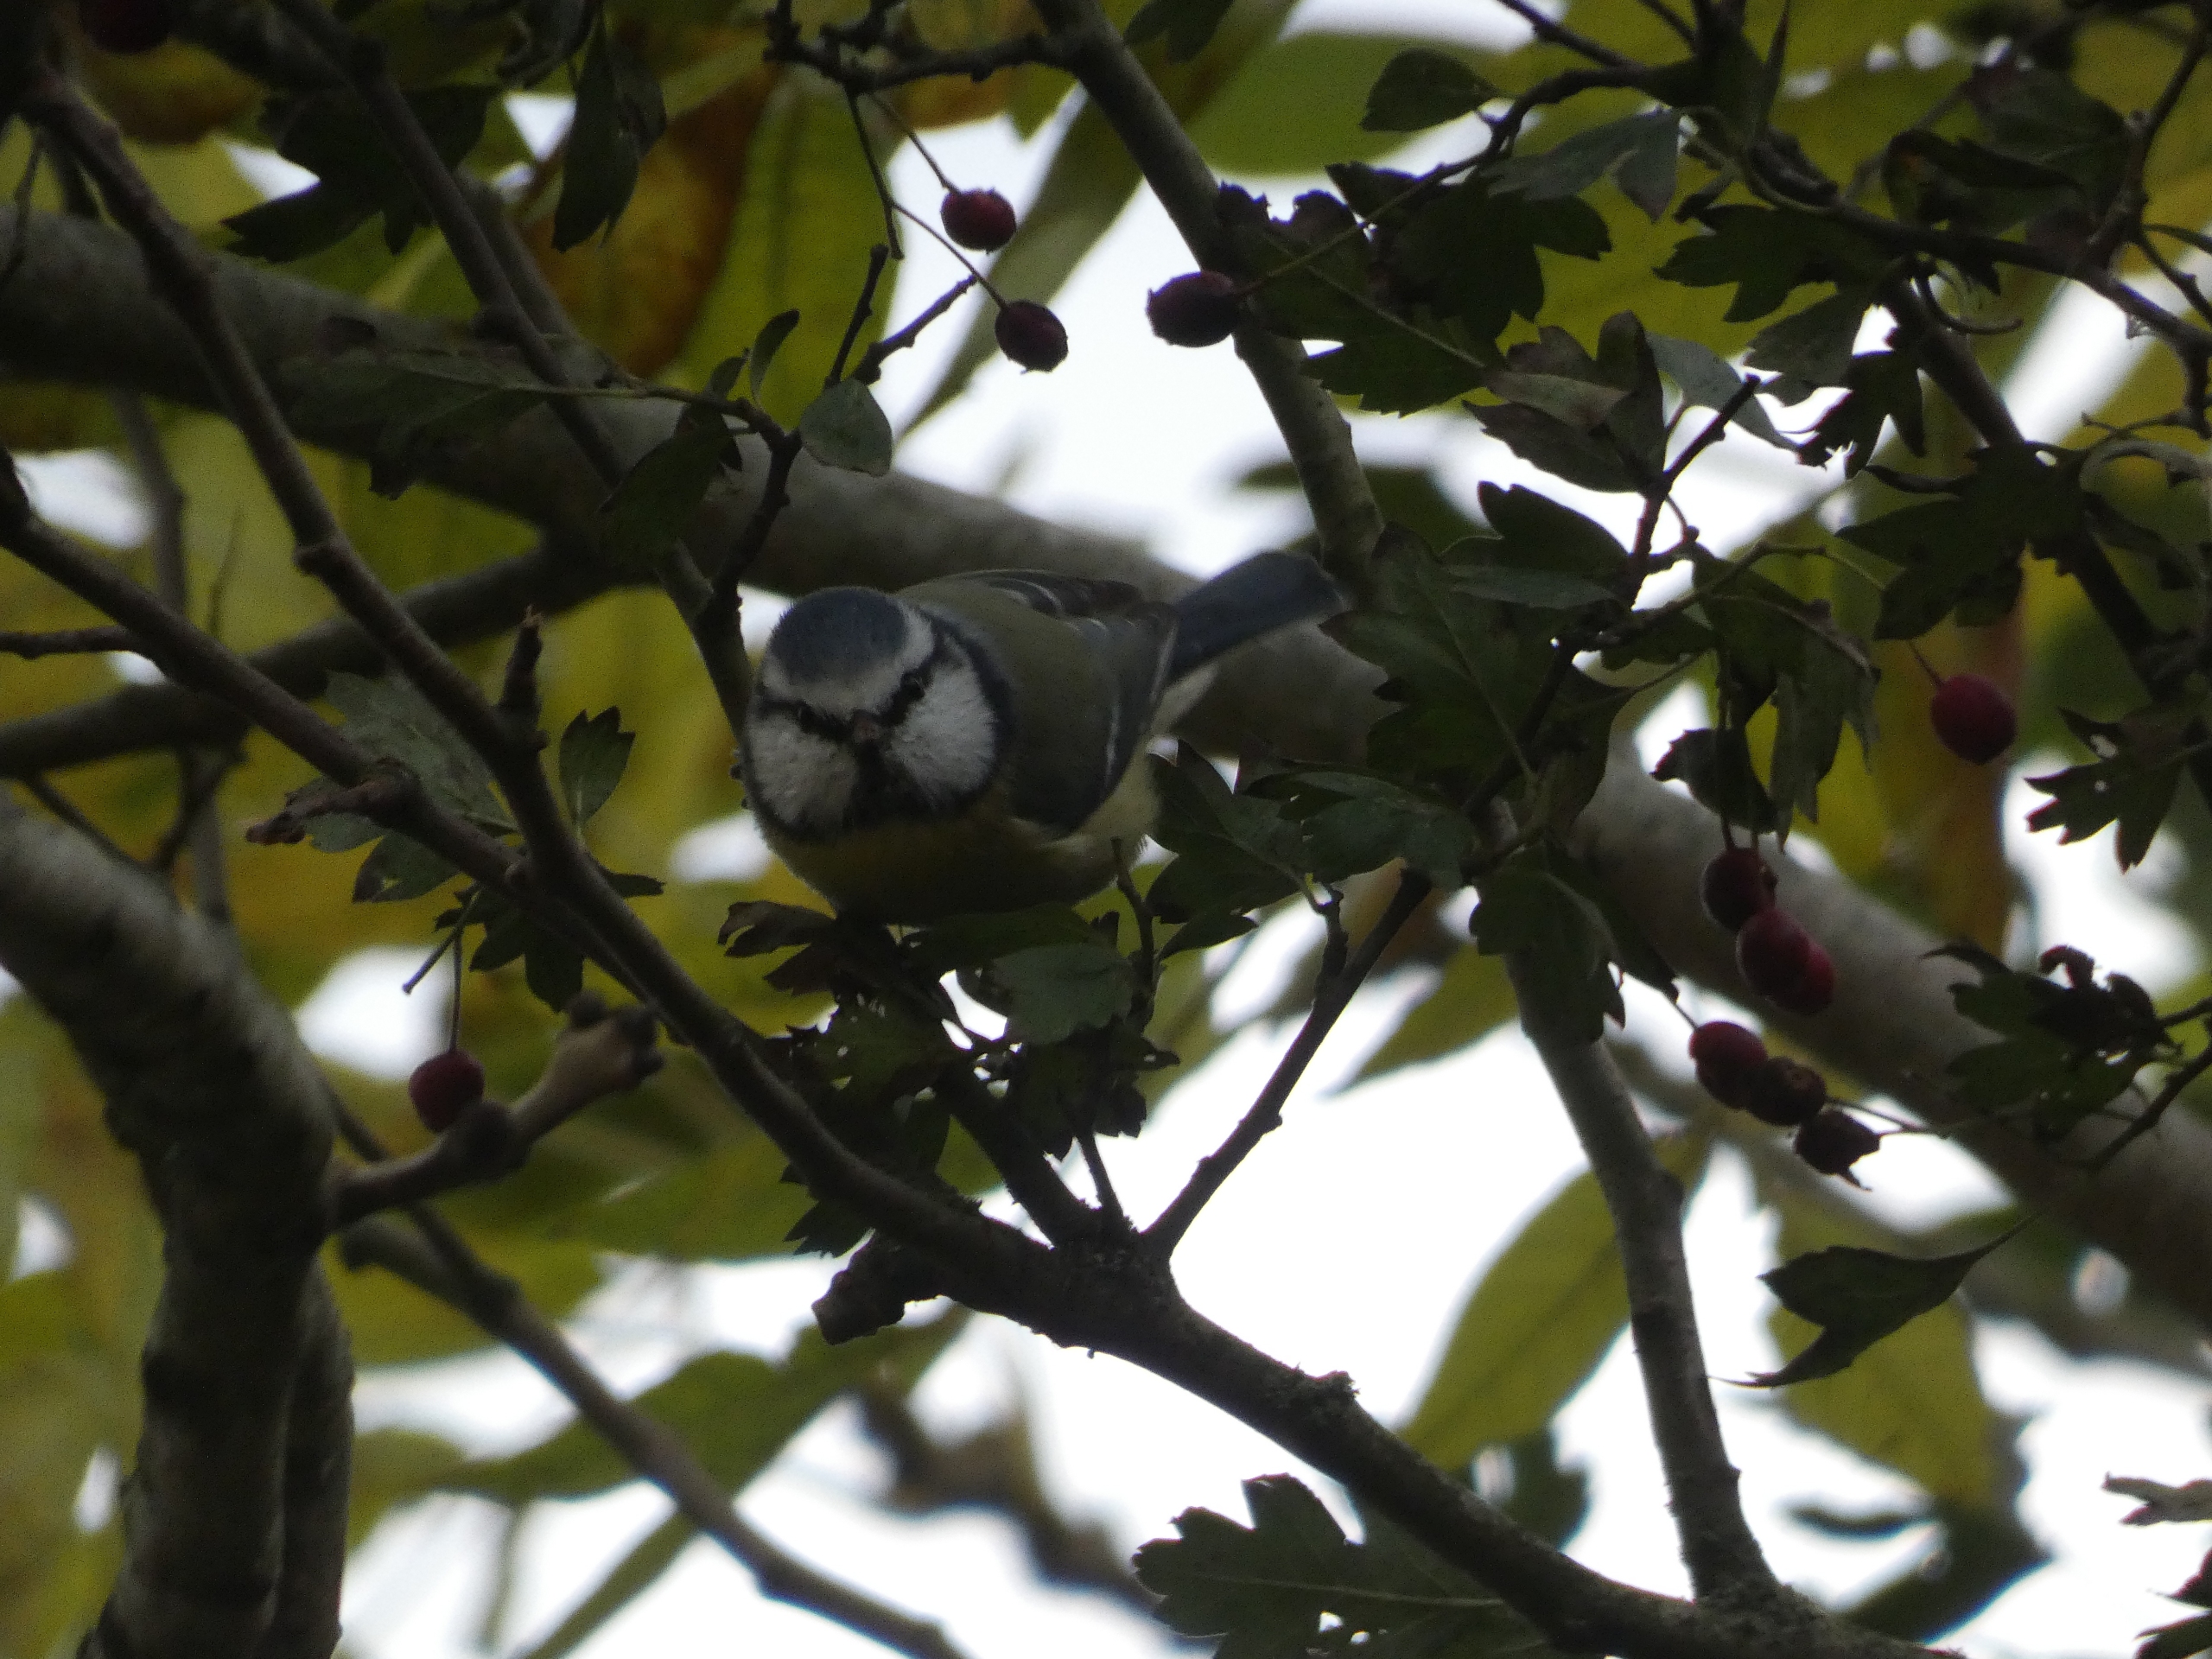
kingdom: Animalia
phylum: Chordata
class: Aves
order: Passeriformes
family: Paridae
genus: Cyanistes
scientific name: Cyanistes caeruleus
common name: Blåmejse
